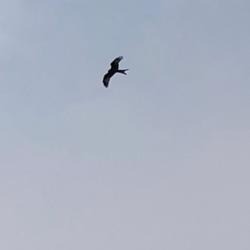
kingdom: Animalia
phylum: Chordata
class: Aves
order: Accipitriformes
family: Accipitridae
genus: Milvus
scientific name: Milvus milvus
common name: Rød glente
